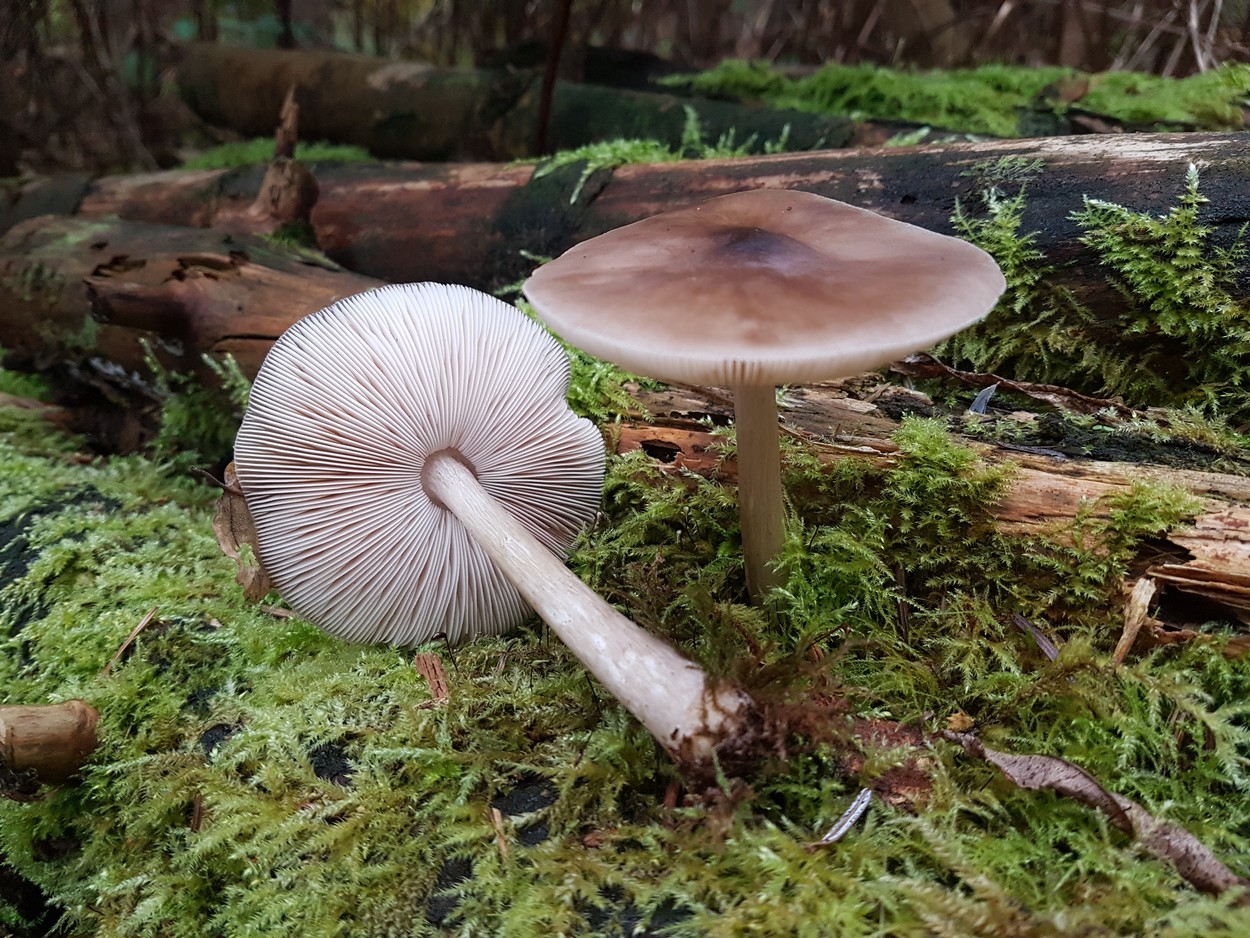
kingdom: Fungi
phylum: Basidiomycota
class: Agaricomycetes
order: Agaricales
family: Pluteaceae
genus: Pluteus
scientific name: Pluteus cervinus
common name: sodfarvet skærmhat
